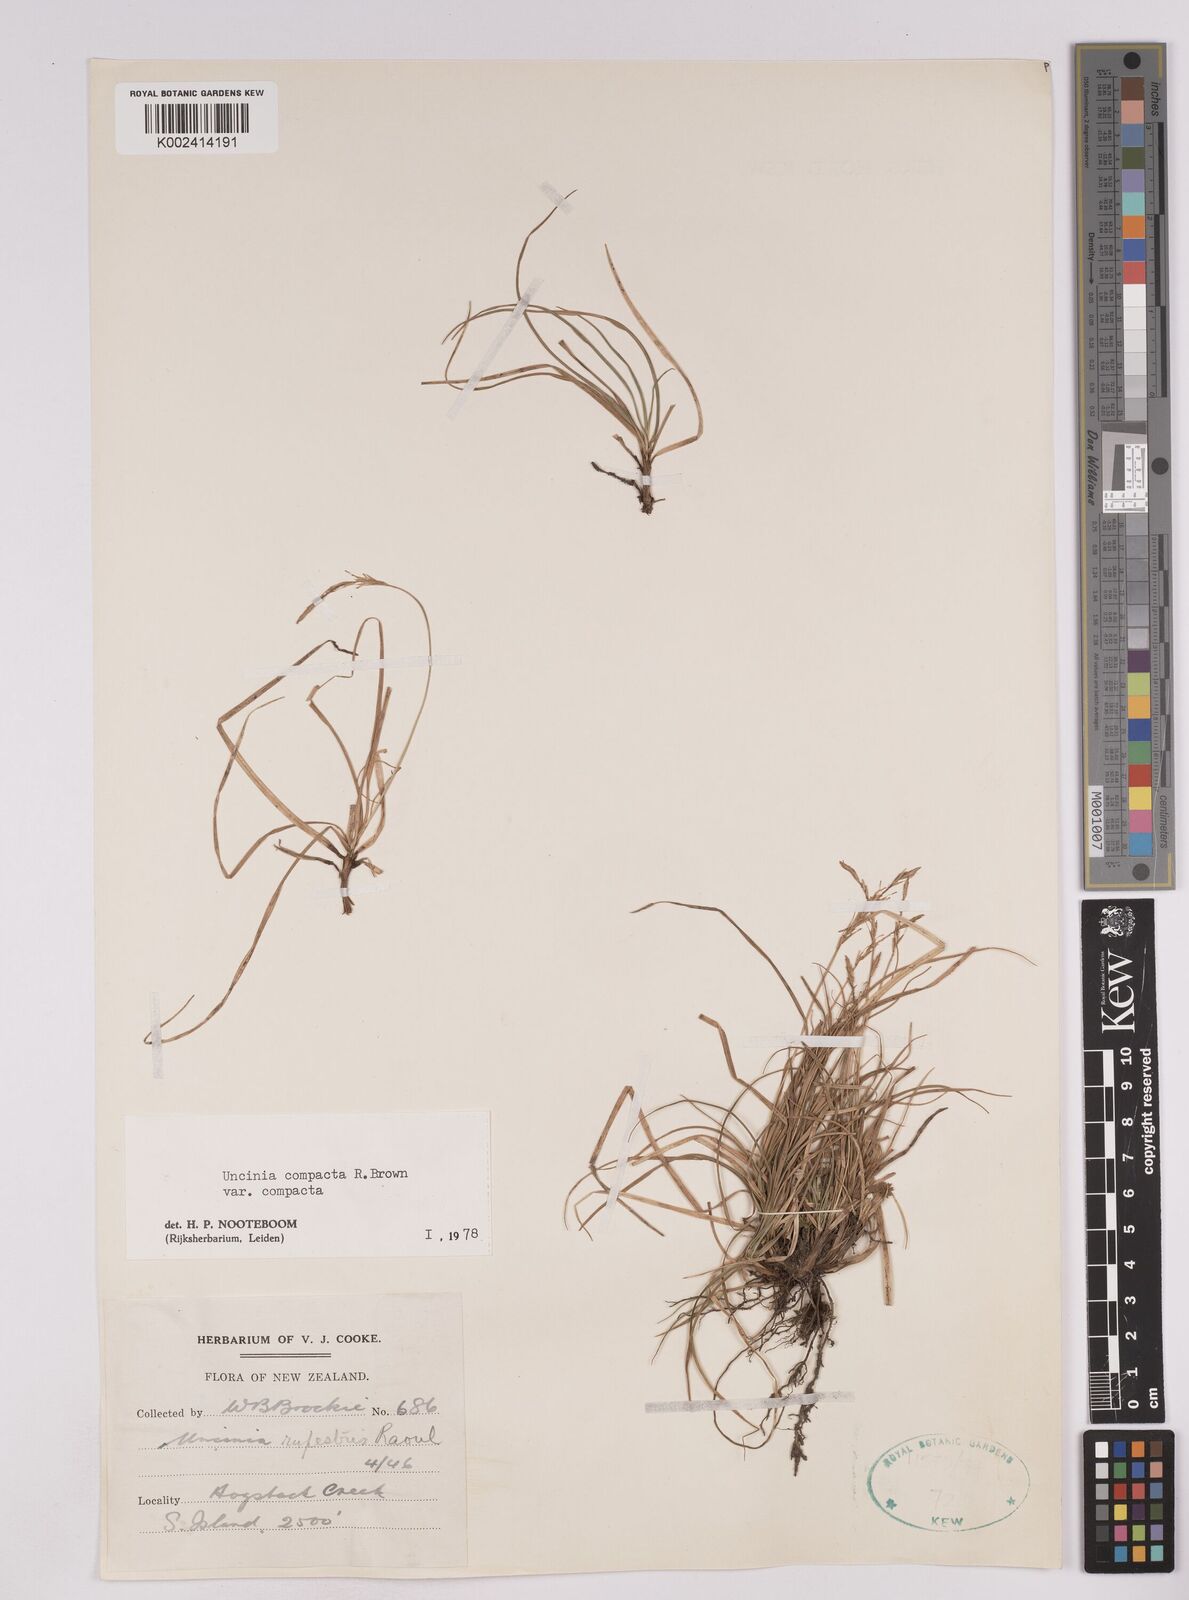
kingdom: Plantae
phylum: Tracheophyta
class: Liliopsida
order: Poales
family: Cyperaceae
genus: Carex
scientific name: Carex austrocompacta
